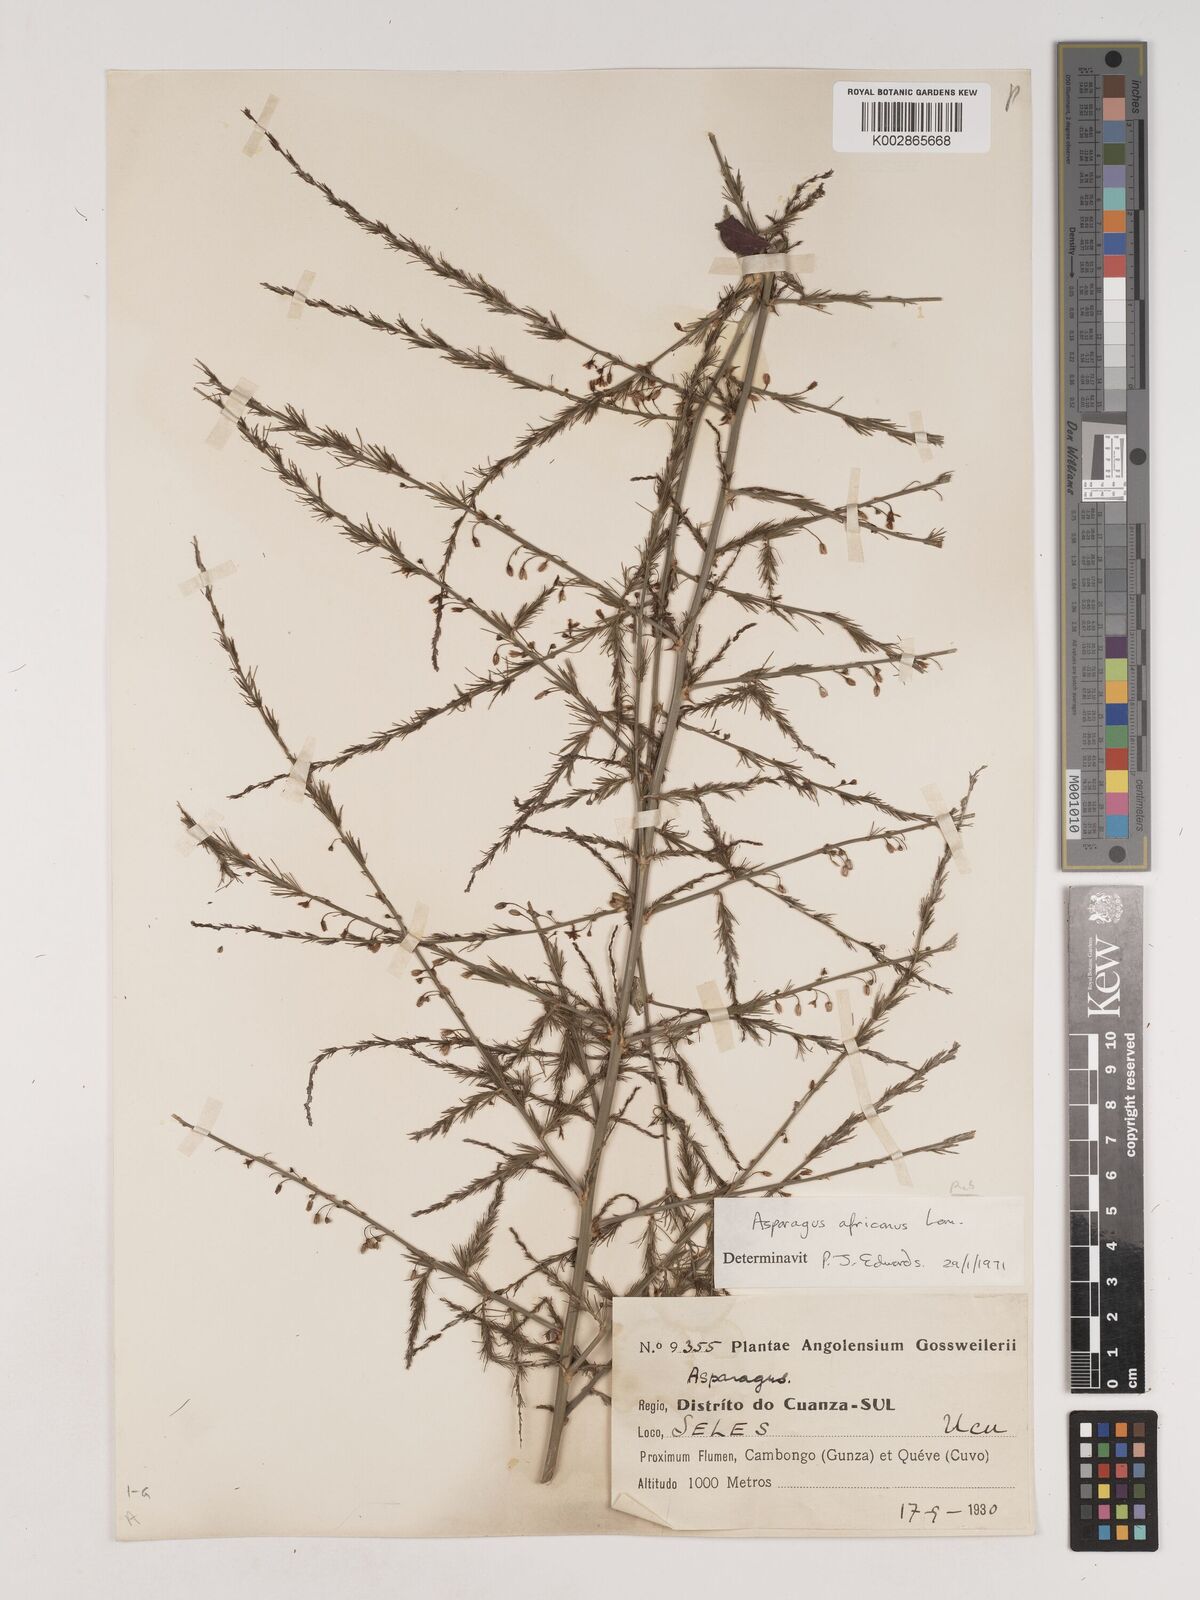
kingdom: Plantae
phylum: Tracheophyta
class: Liliopsida
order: Asparagales
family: Asparagaceae
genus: Asparagus
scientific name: Asparagus africanus
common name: Asparagus-fern
